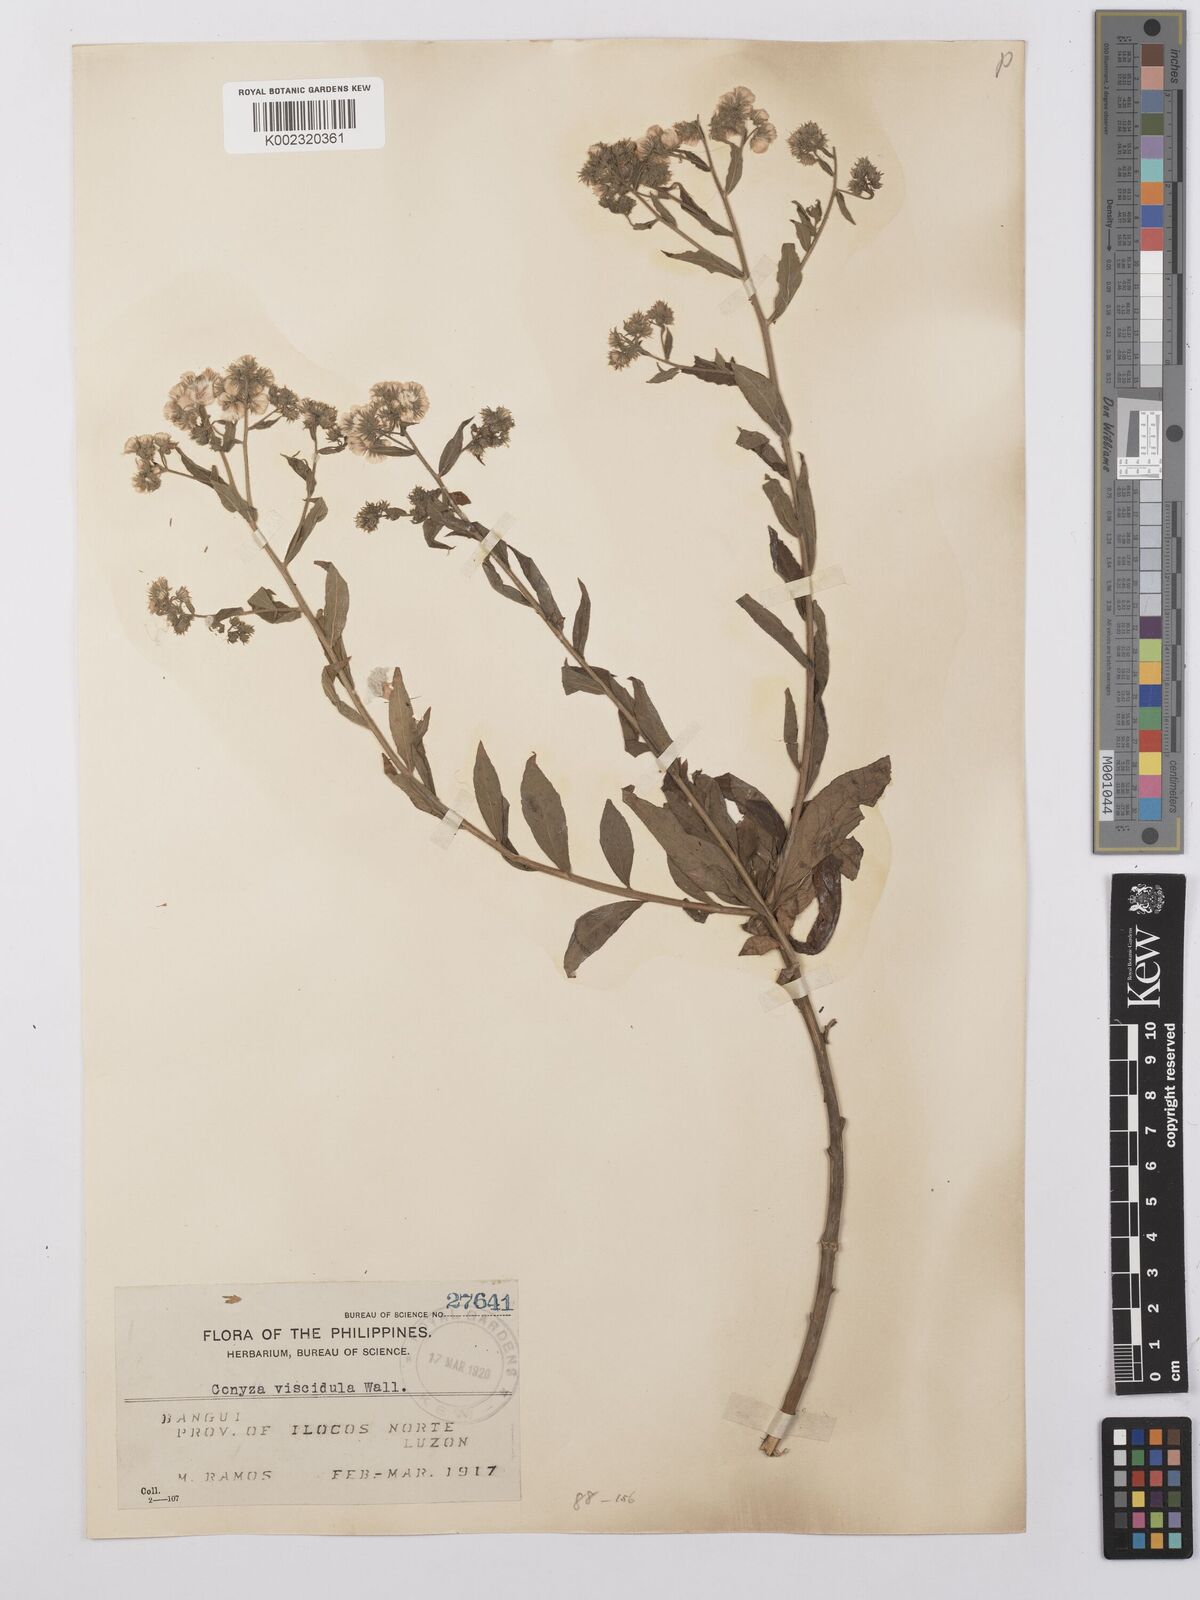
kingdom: Plantae
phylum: Tracheophyta
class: Magnoliopsida
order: Asterales
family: Asteraceae
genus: Eschenbachia
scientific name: Eschenbachia leucantha
